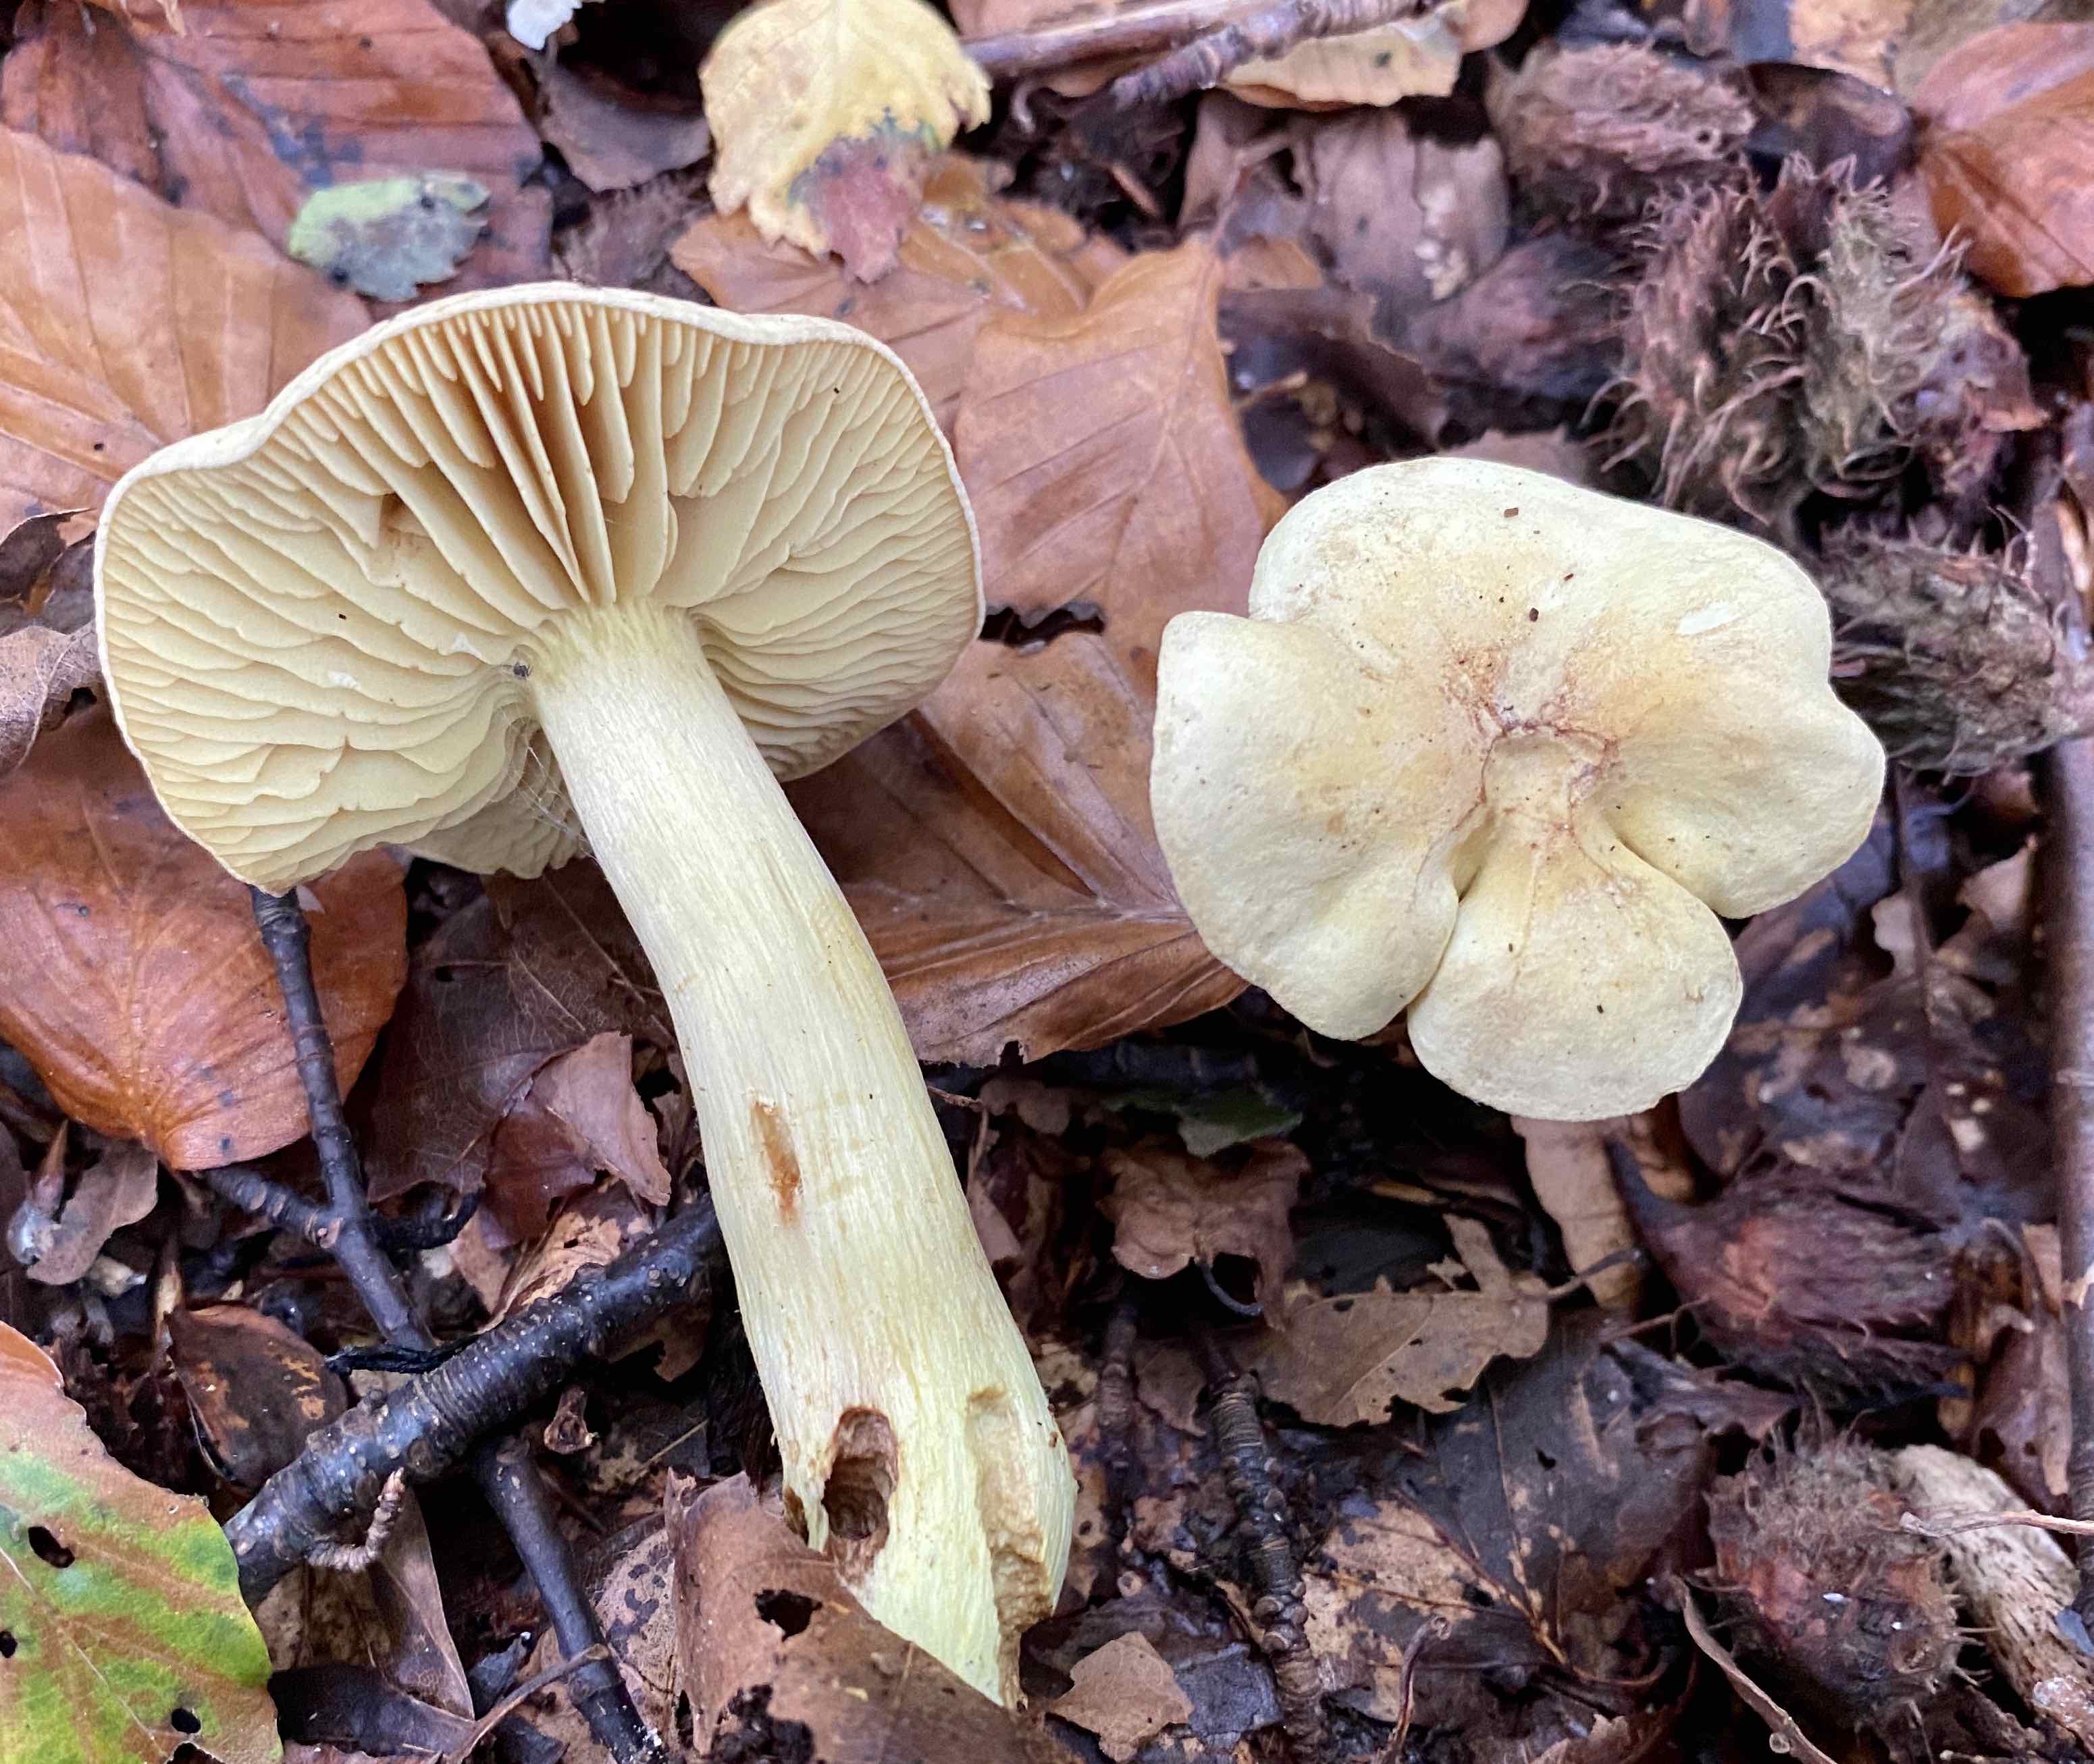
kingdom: Fungi
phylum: Basidiomycota
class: Agaricomycetes
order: Agaricales
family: Tricholomataceae
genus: Tricholoma
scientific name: Tricholoma sulphureum
